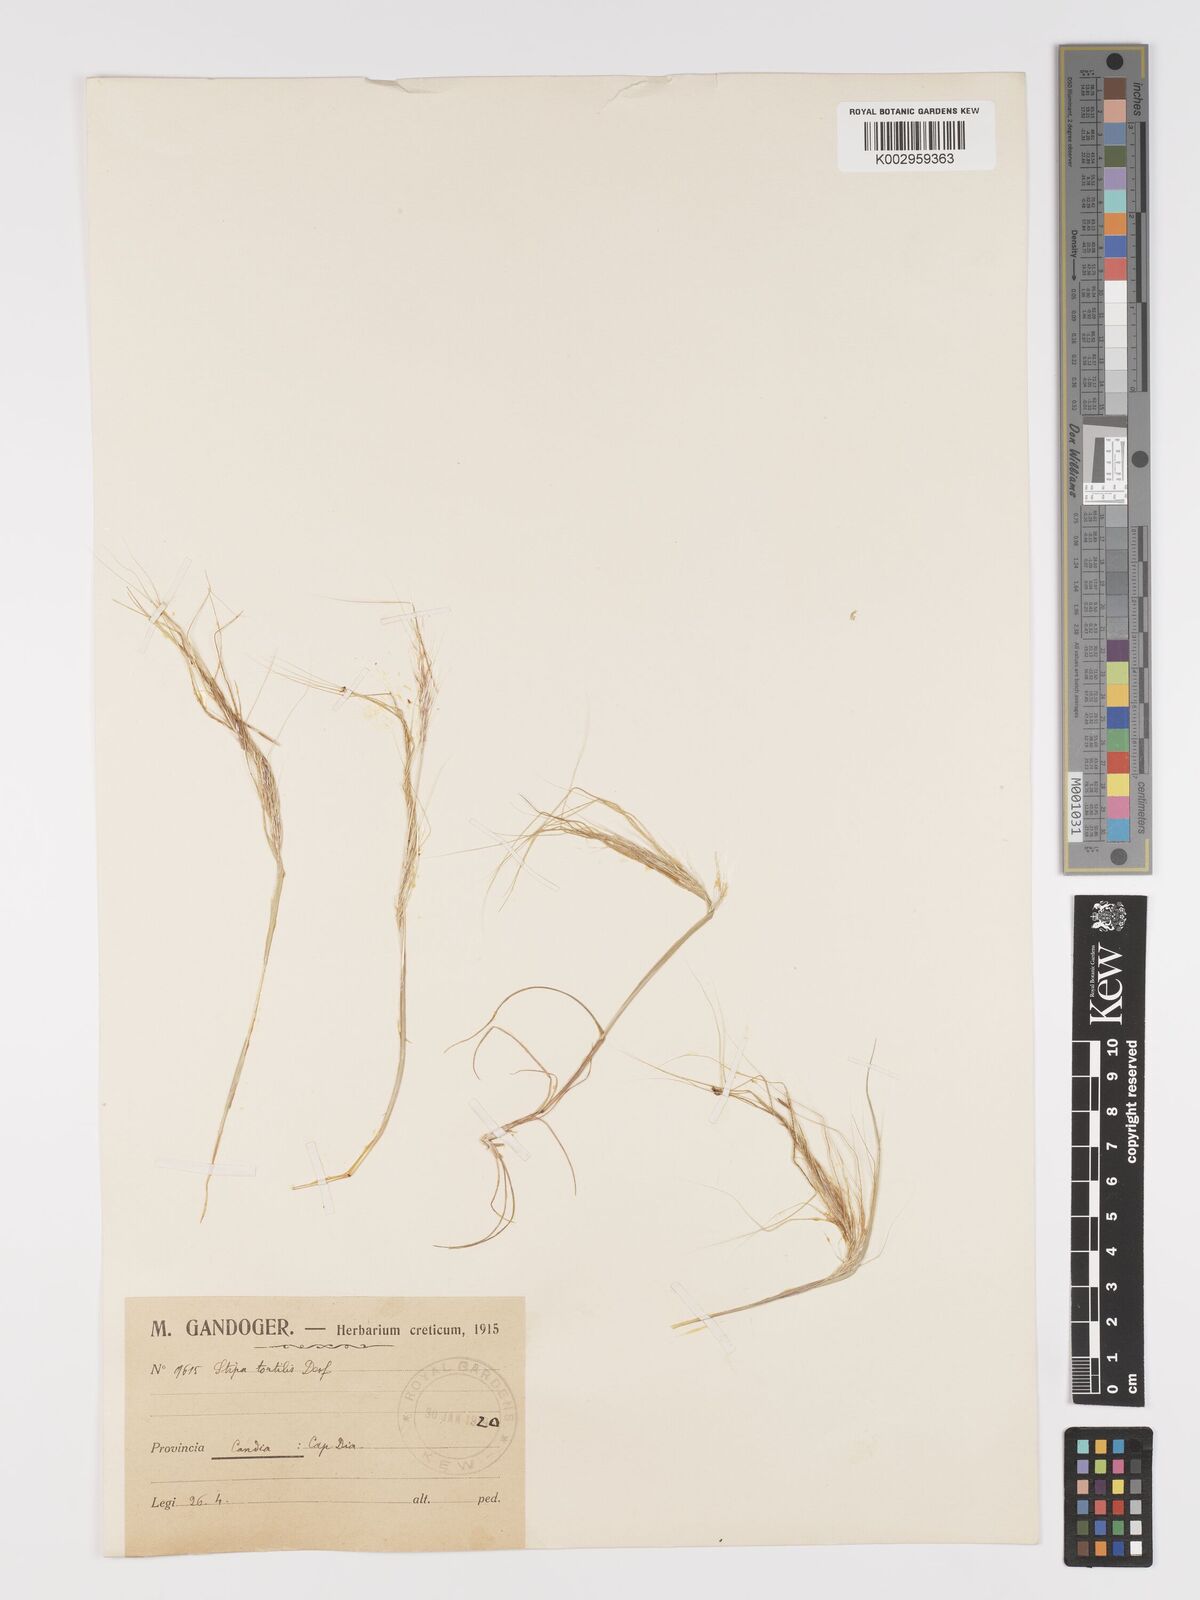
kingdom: Plantae
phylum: Tracheophyta
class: Liliopsida
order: Poales
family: Poaceae
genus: Stipellula
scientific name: Stipellula capensis
